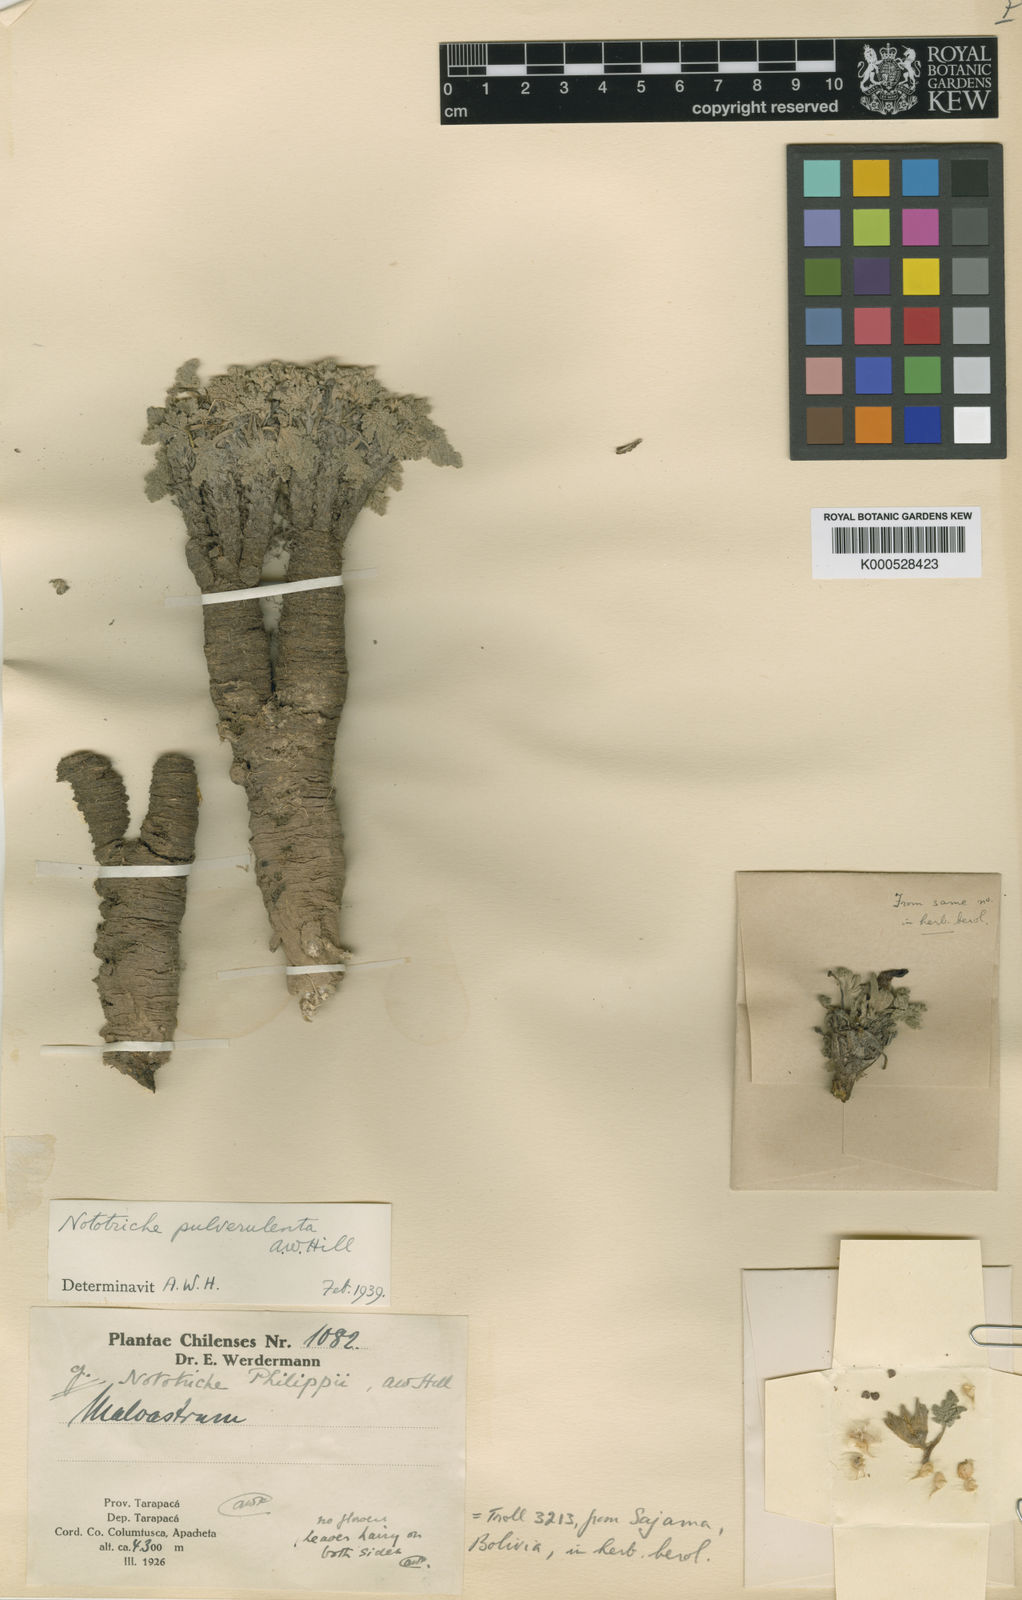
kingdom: Plantae
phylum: Tracheophyta
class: Magnoliopsida
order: Malvales
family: Malvaceae
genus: Nototriche
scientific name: Nototriche pulverulenta
